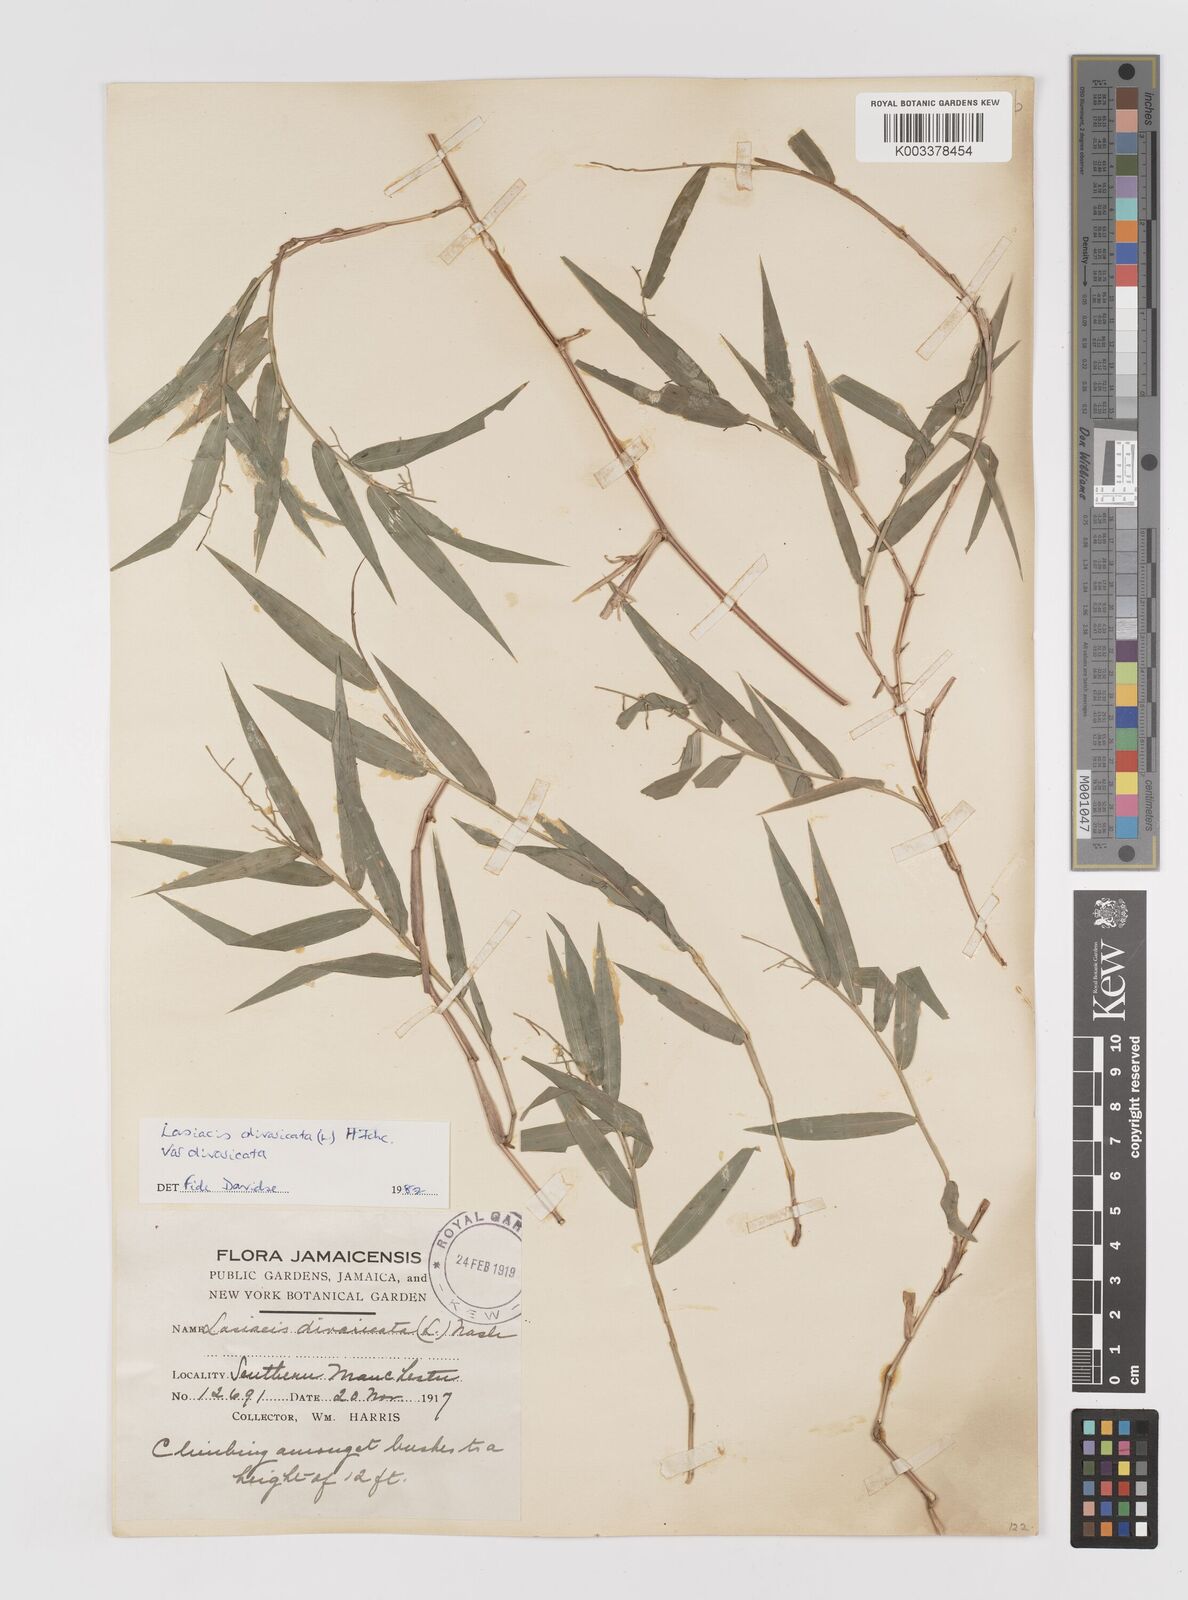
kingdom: Plantae
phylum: Tracheophyta
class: Liliopsida
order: Poales
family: Poaceae
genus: Lasiacis
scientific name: Lasiacis divaricata
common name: Smallcane
